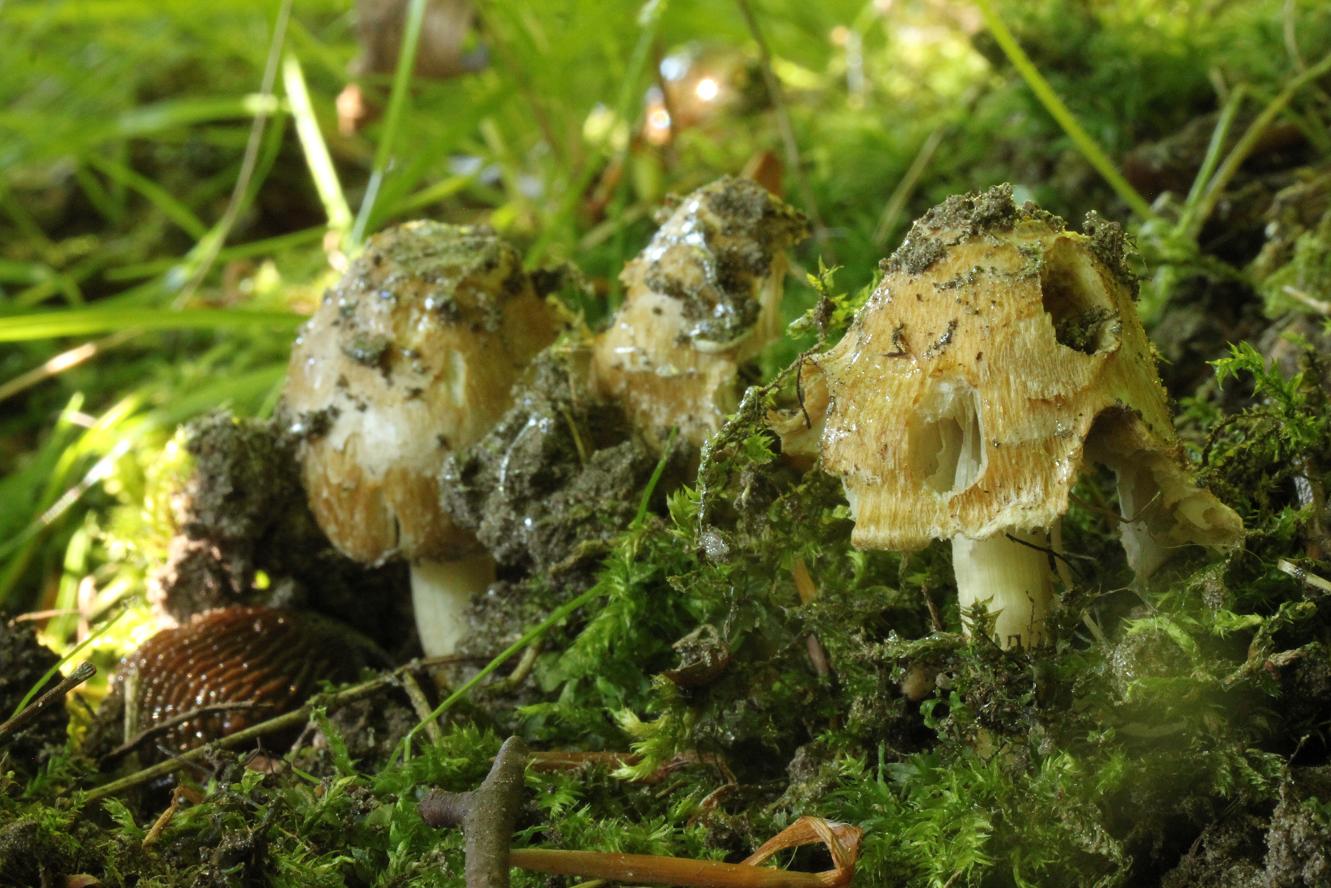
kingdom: Fungi
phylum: Basidiomycota
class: Agaricomycetes
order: Agaricales
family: Inocybaceae
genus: Inocybe
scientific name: Inocybe vaurasii
